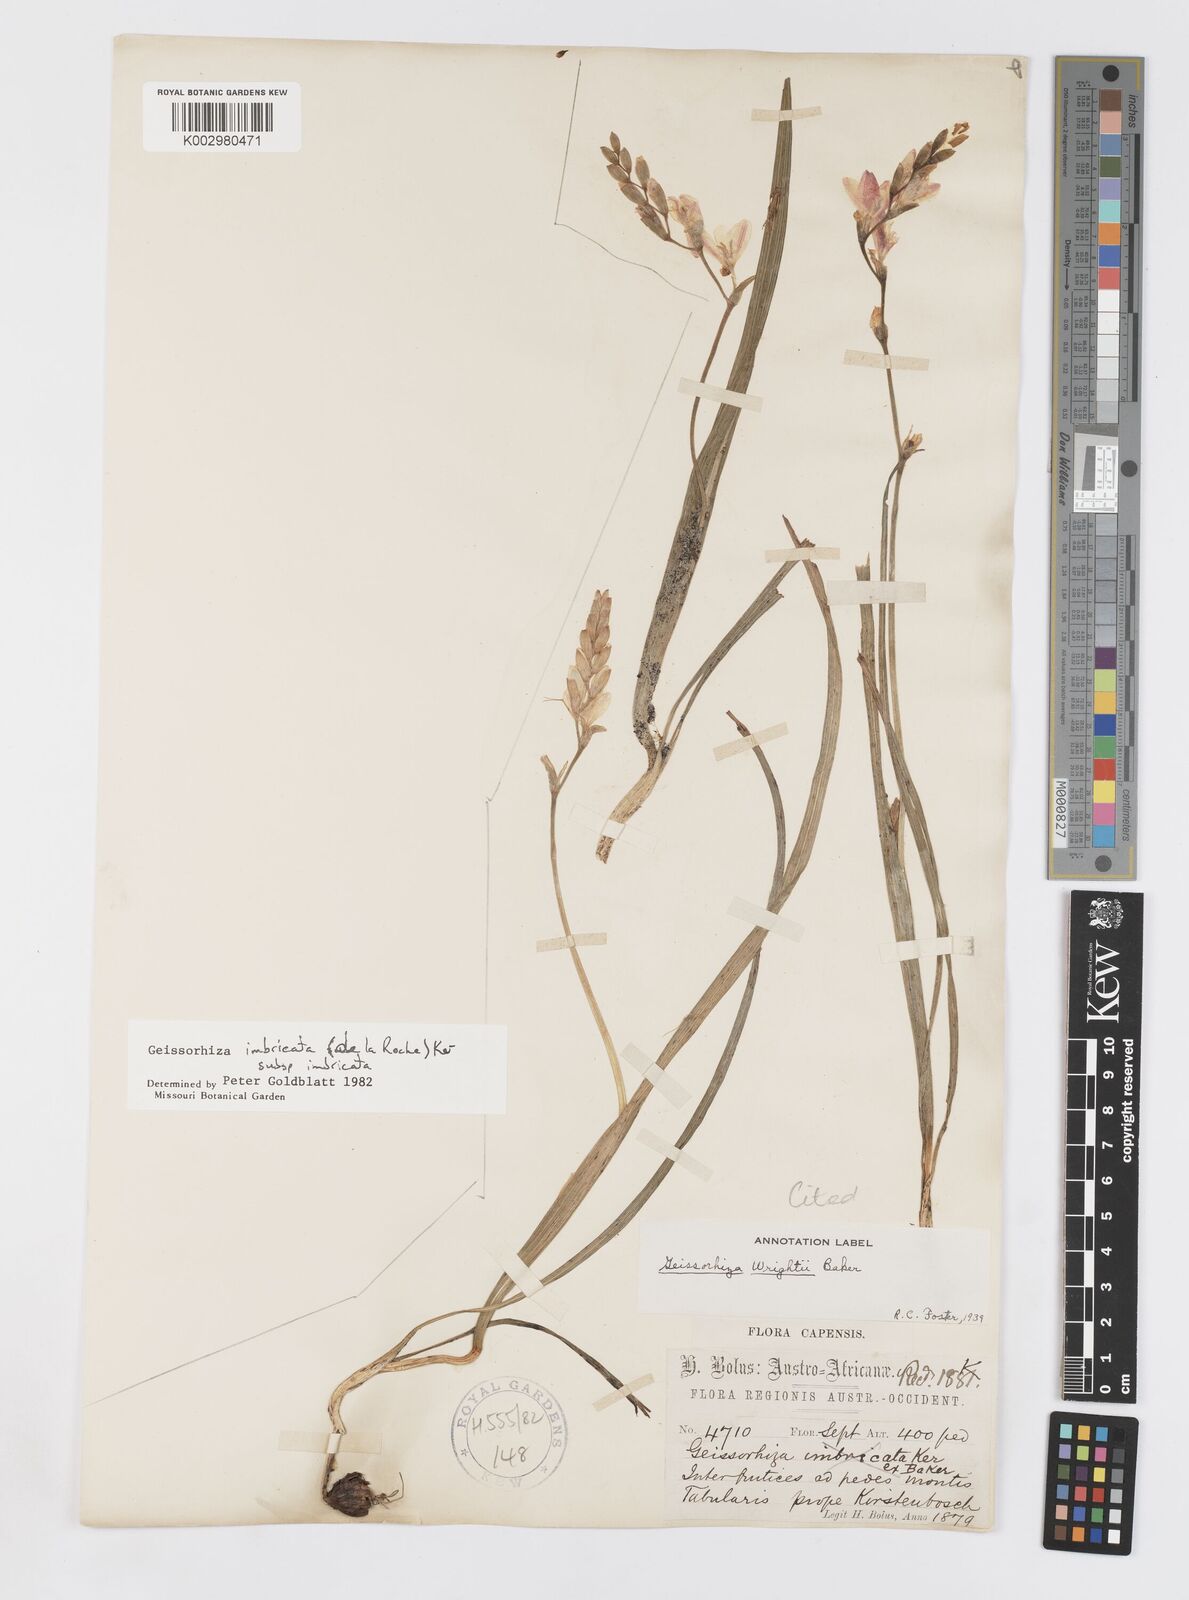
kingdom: Plantae
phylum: Tracheophyta
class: Liliopsida
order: Asparagales
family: Iridaceae
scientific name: Iridaceae
